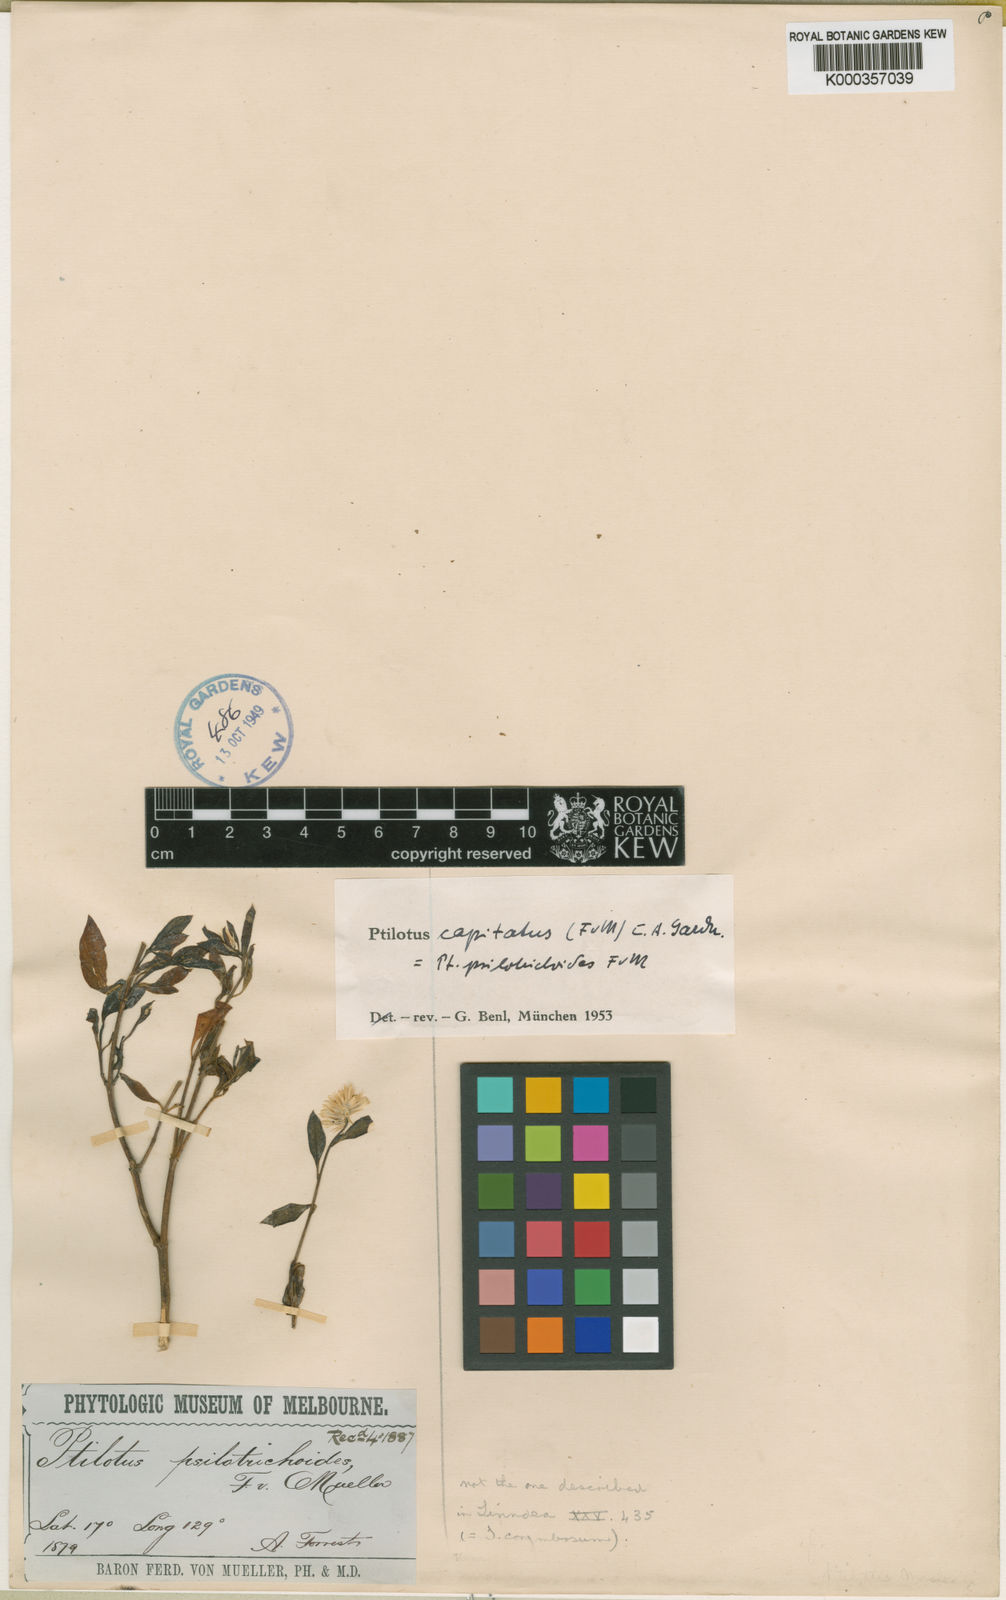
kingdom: Plantae
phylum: Tracheophyta
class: Magnoliopsida
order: Caryophyllales
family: Amaranthaceae
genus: Ptilotus
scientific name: Ptilotus capitatus
